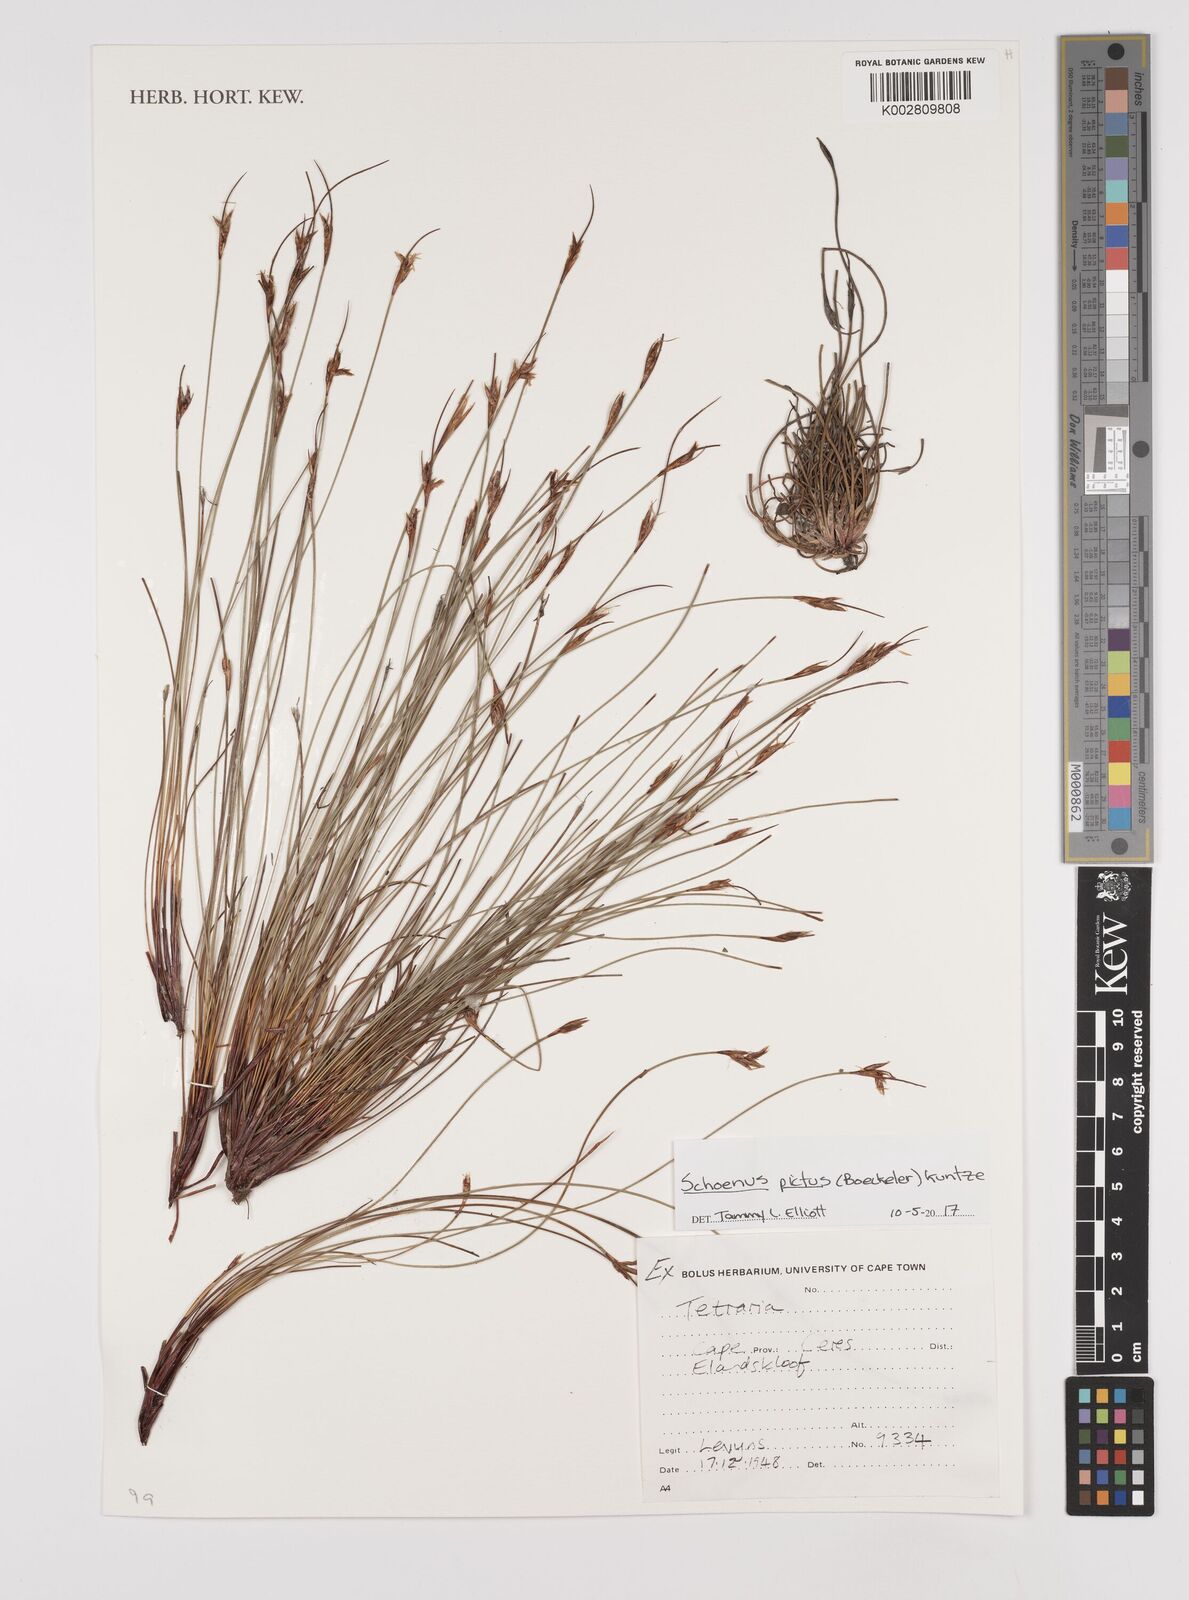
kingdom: Plantae
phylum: Tracheophyta
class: Liliopsida
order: Poales
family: Cyperaceae
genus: Schoenus
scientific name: Schoenus pictus
